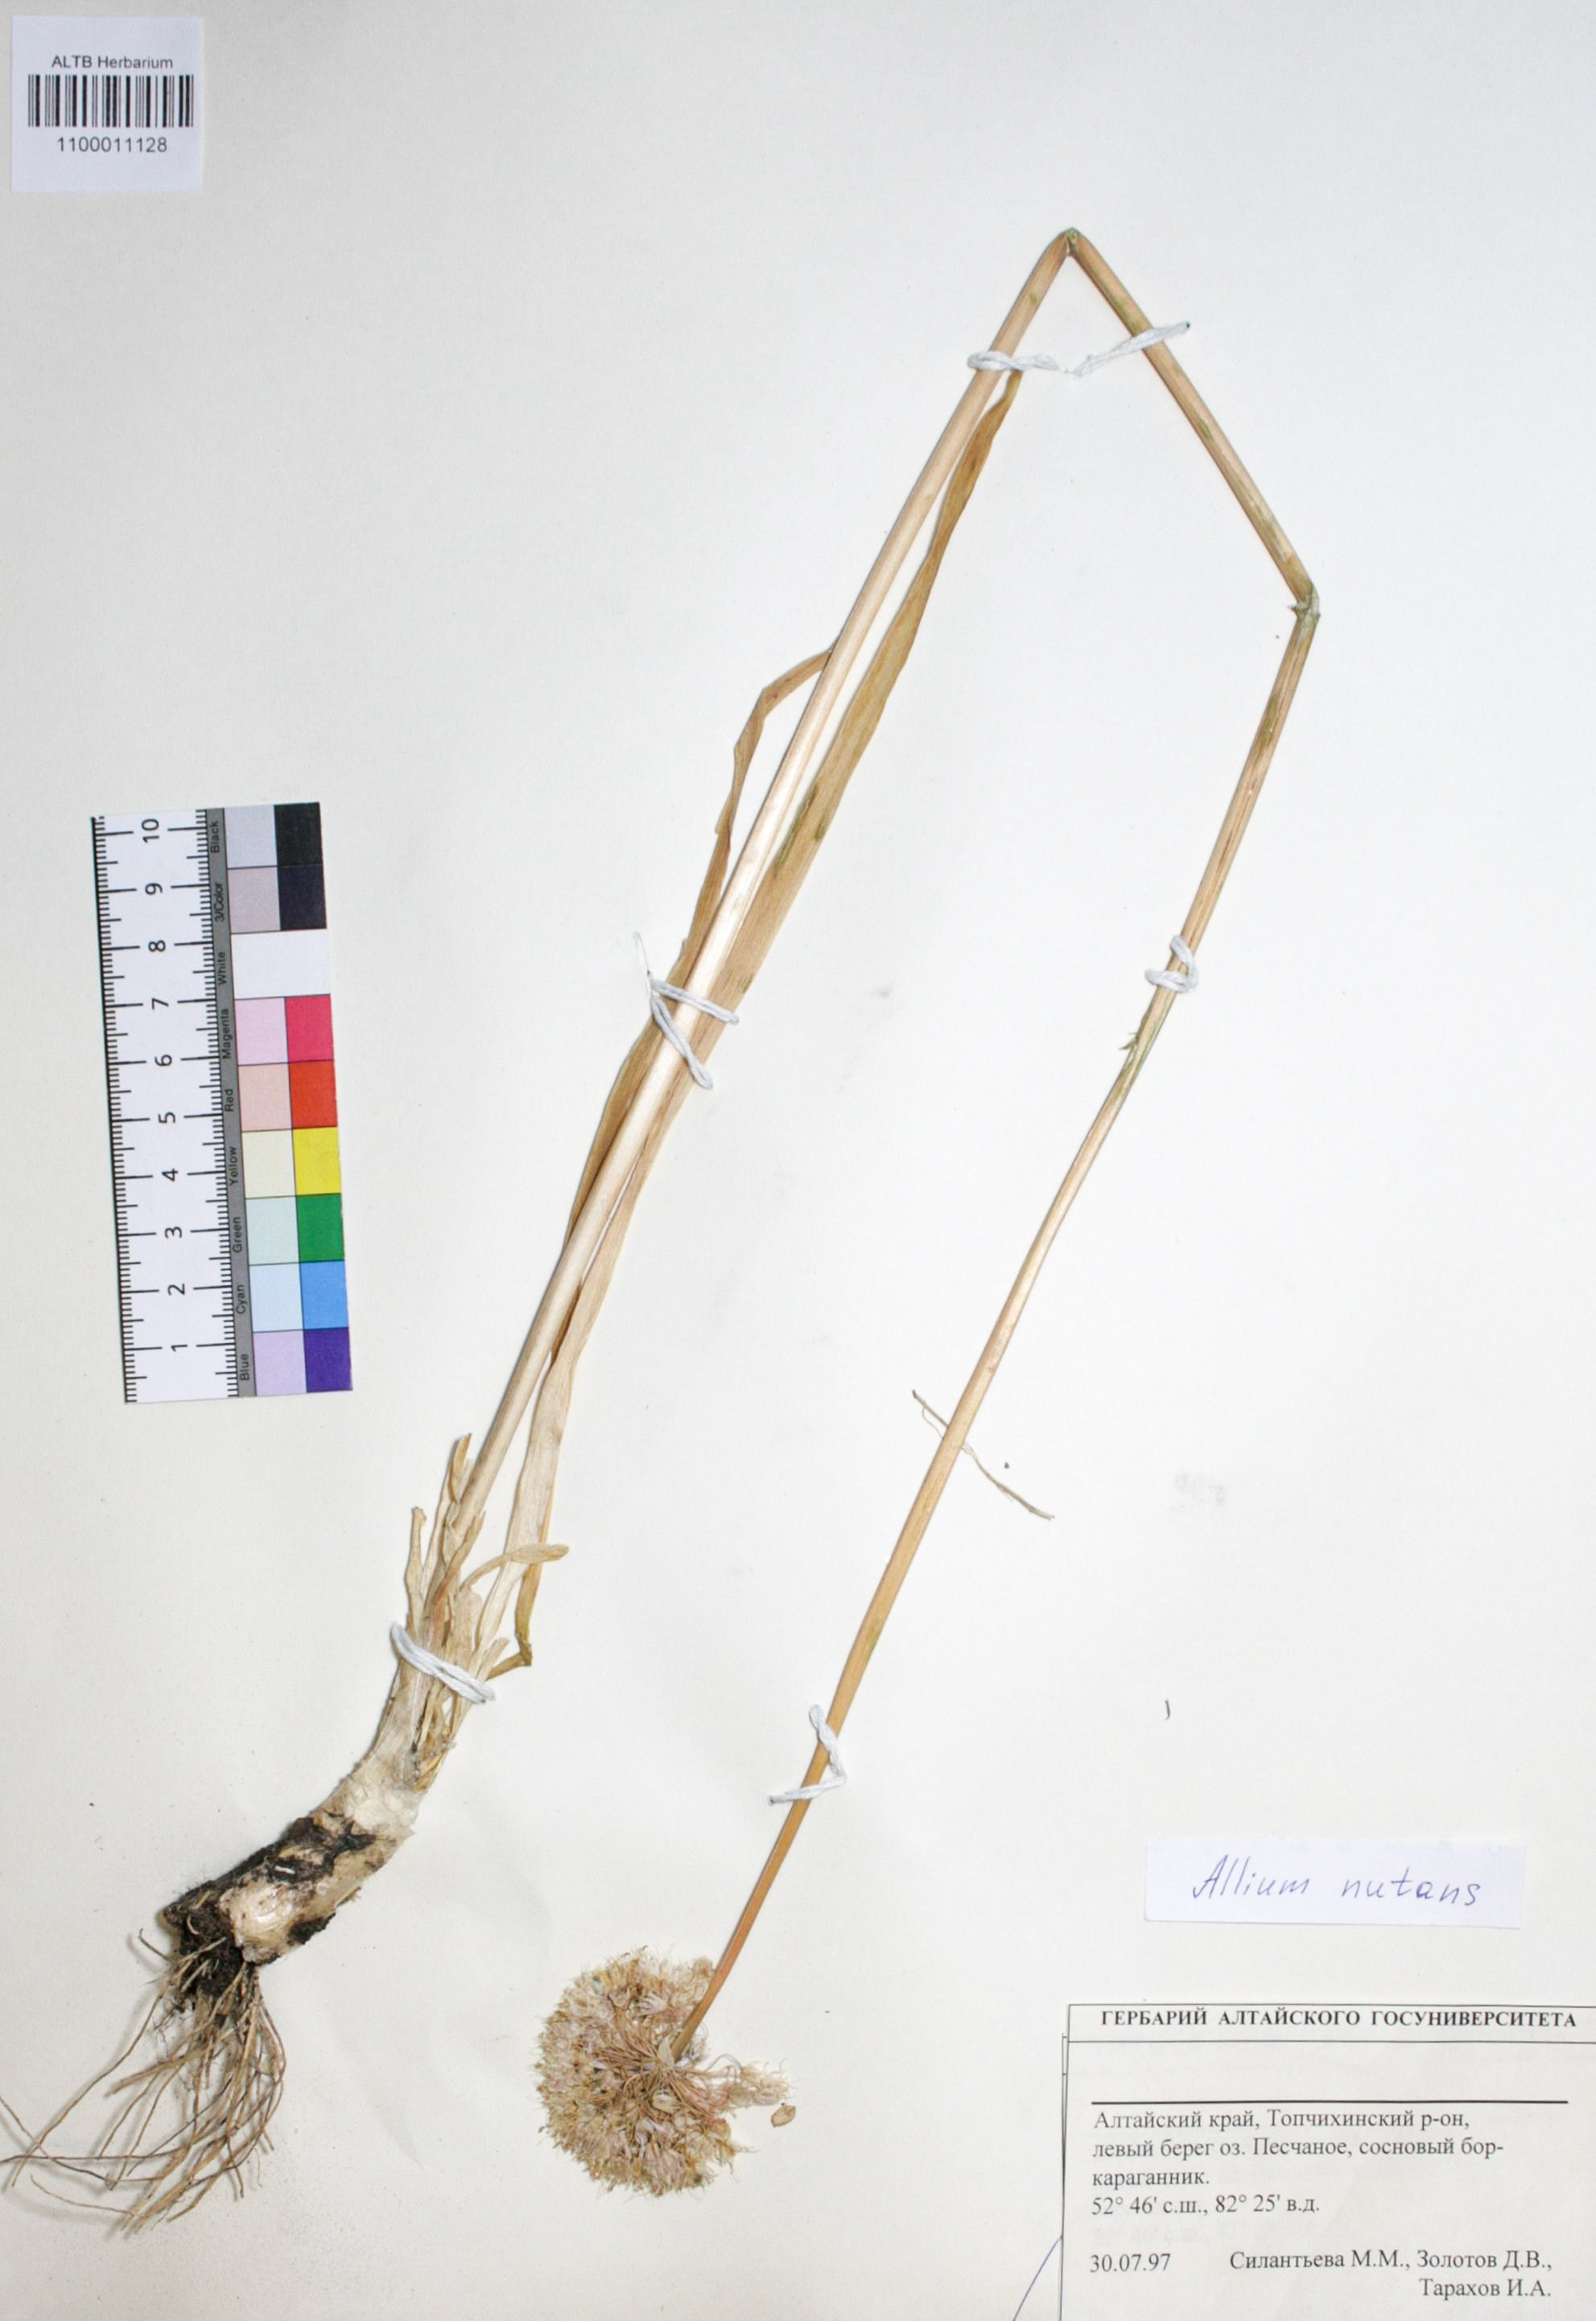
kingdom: Plantae
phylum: Tracheophyta
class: Liliopsida
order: Asparagales
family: Amaryllidaceae
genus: Allium
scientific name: Allium nutans
